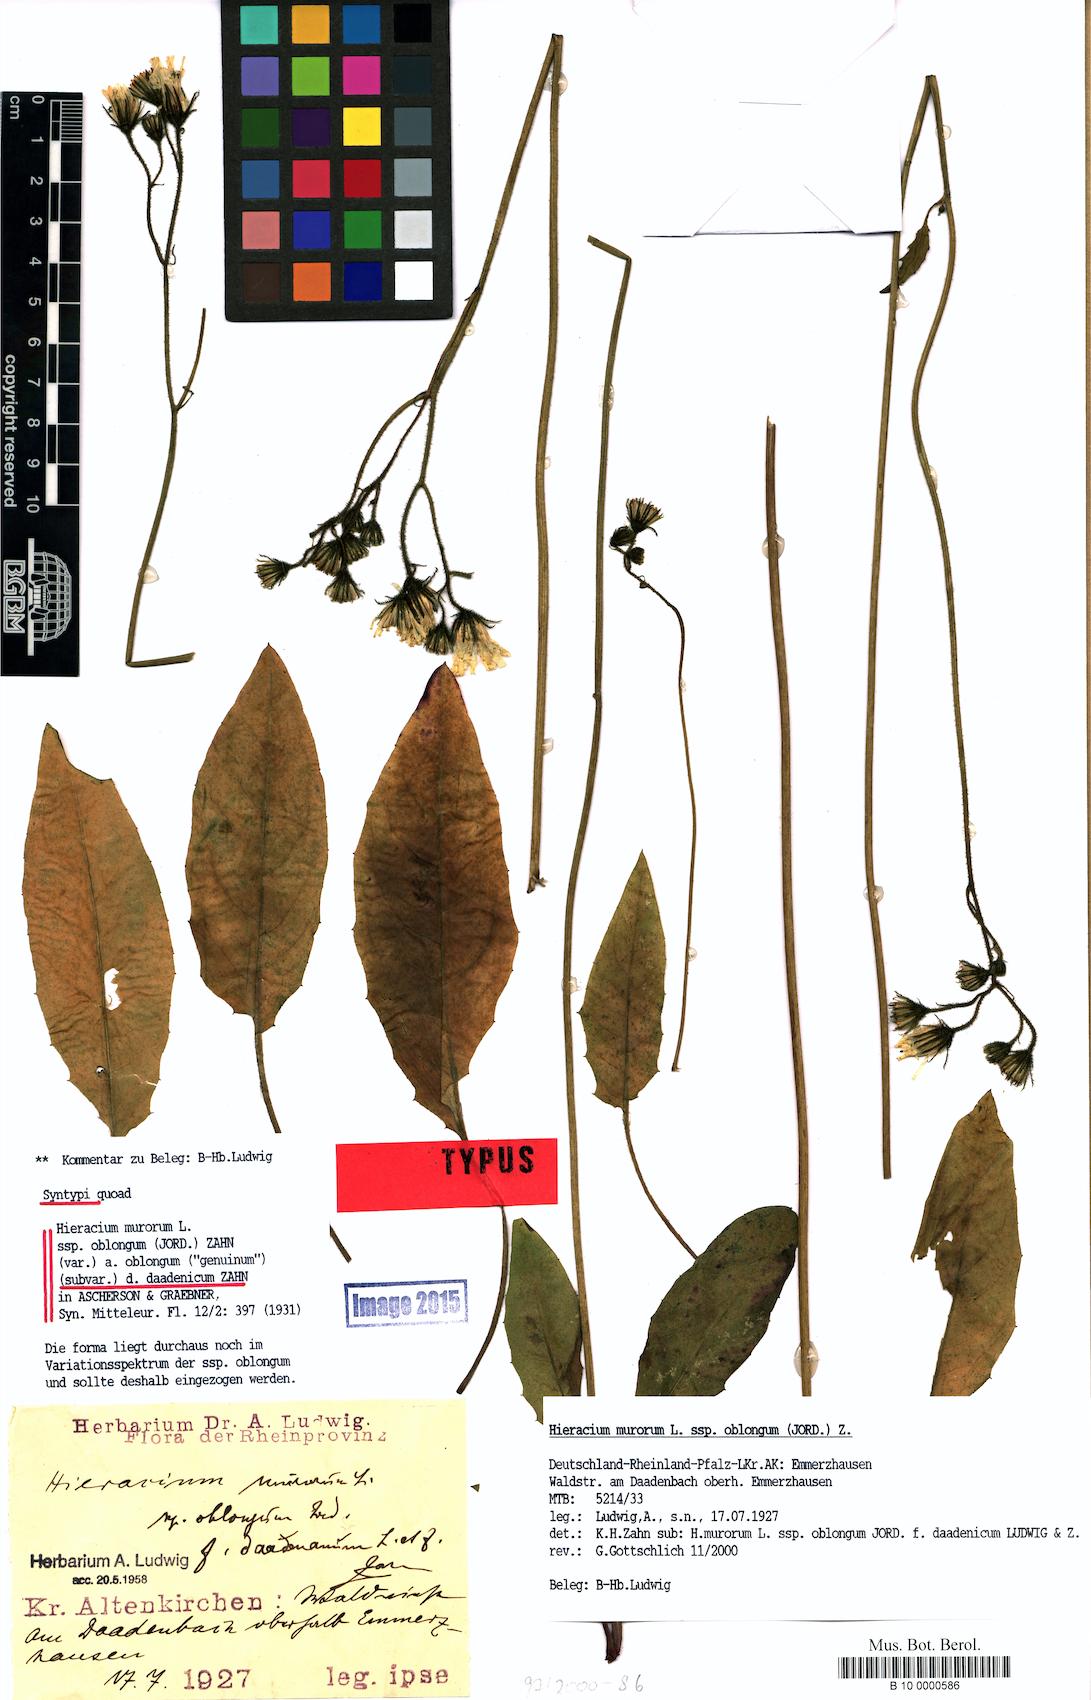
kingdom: Plantae
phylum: Tracheophyta
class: Magnoliopsida
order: Asterales
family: Asteraceae
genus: Hieracium
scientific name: Hieracium murorum
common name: Wall hawkweed
